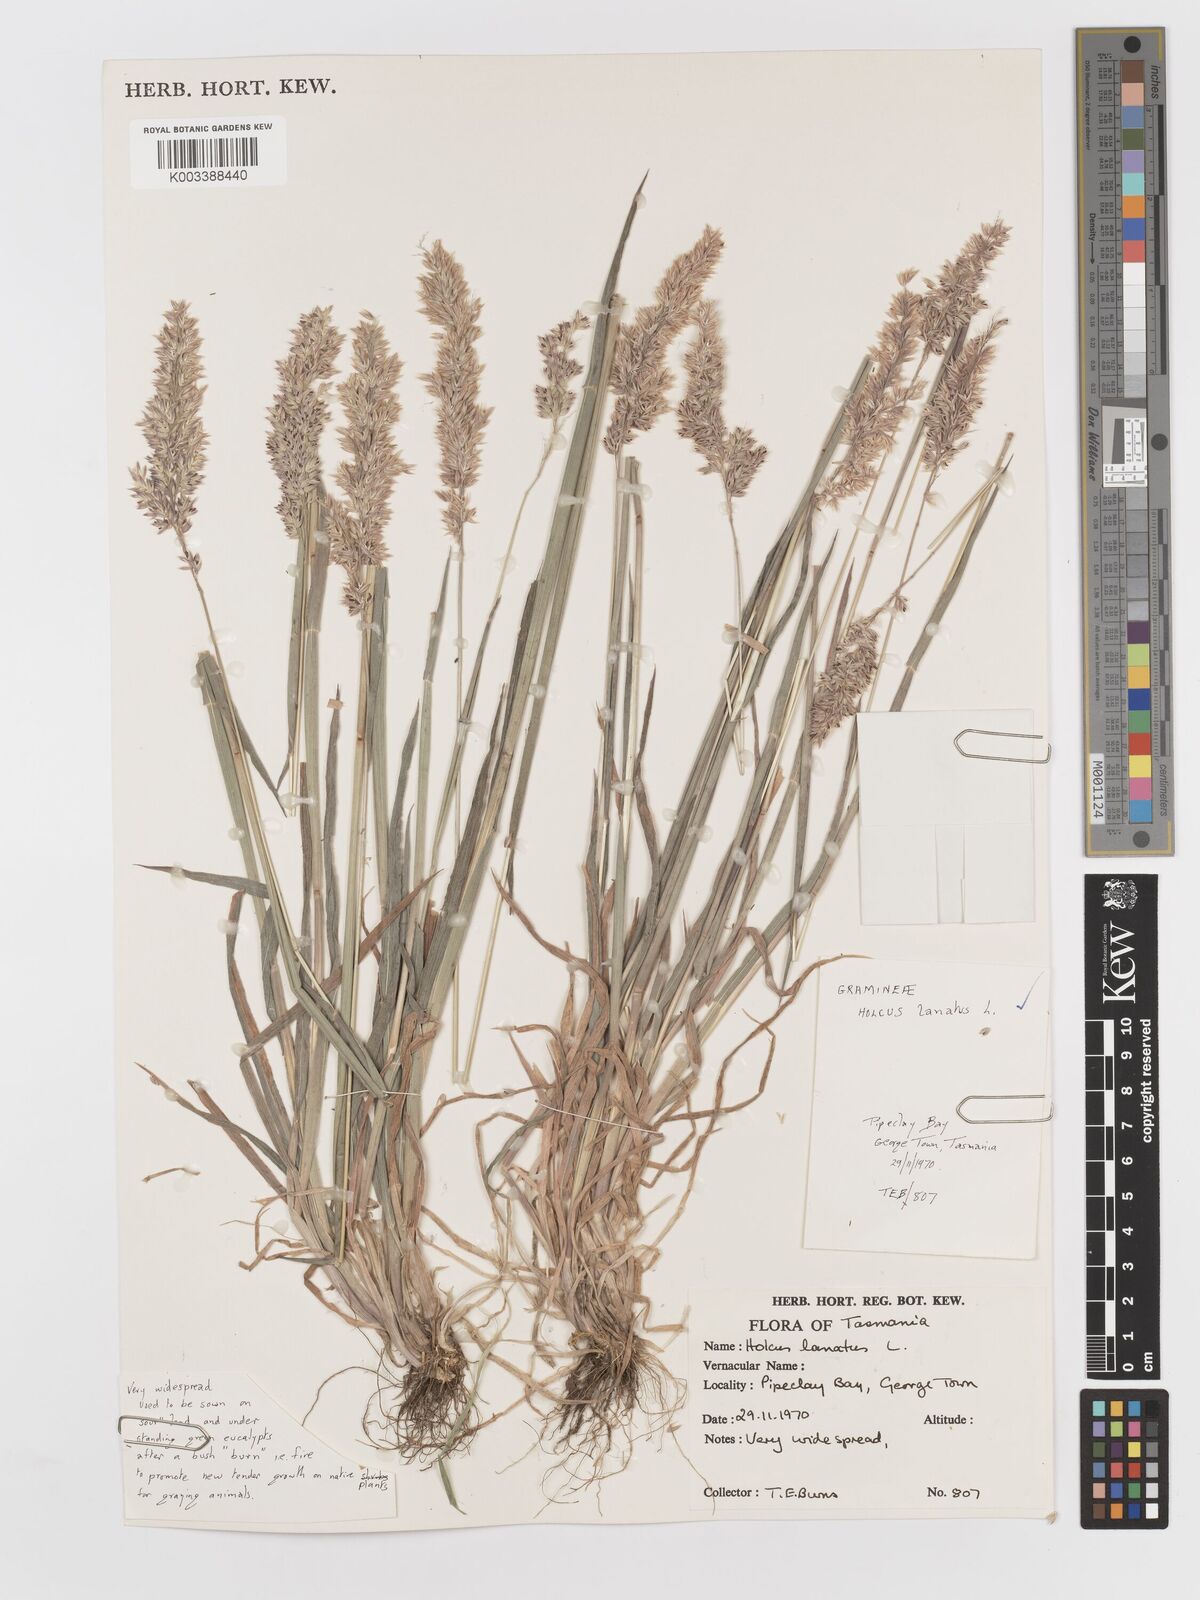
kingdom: Plantae
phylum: Tracheophyta
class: Liliopsida
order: Poales
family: Poaceae
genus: Holcus
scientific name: Holcus lanatus
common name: Yorkshire-fog
